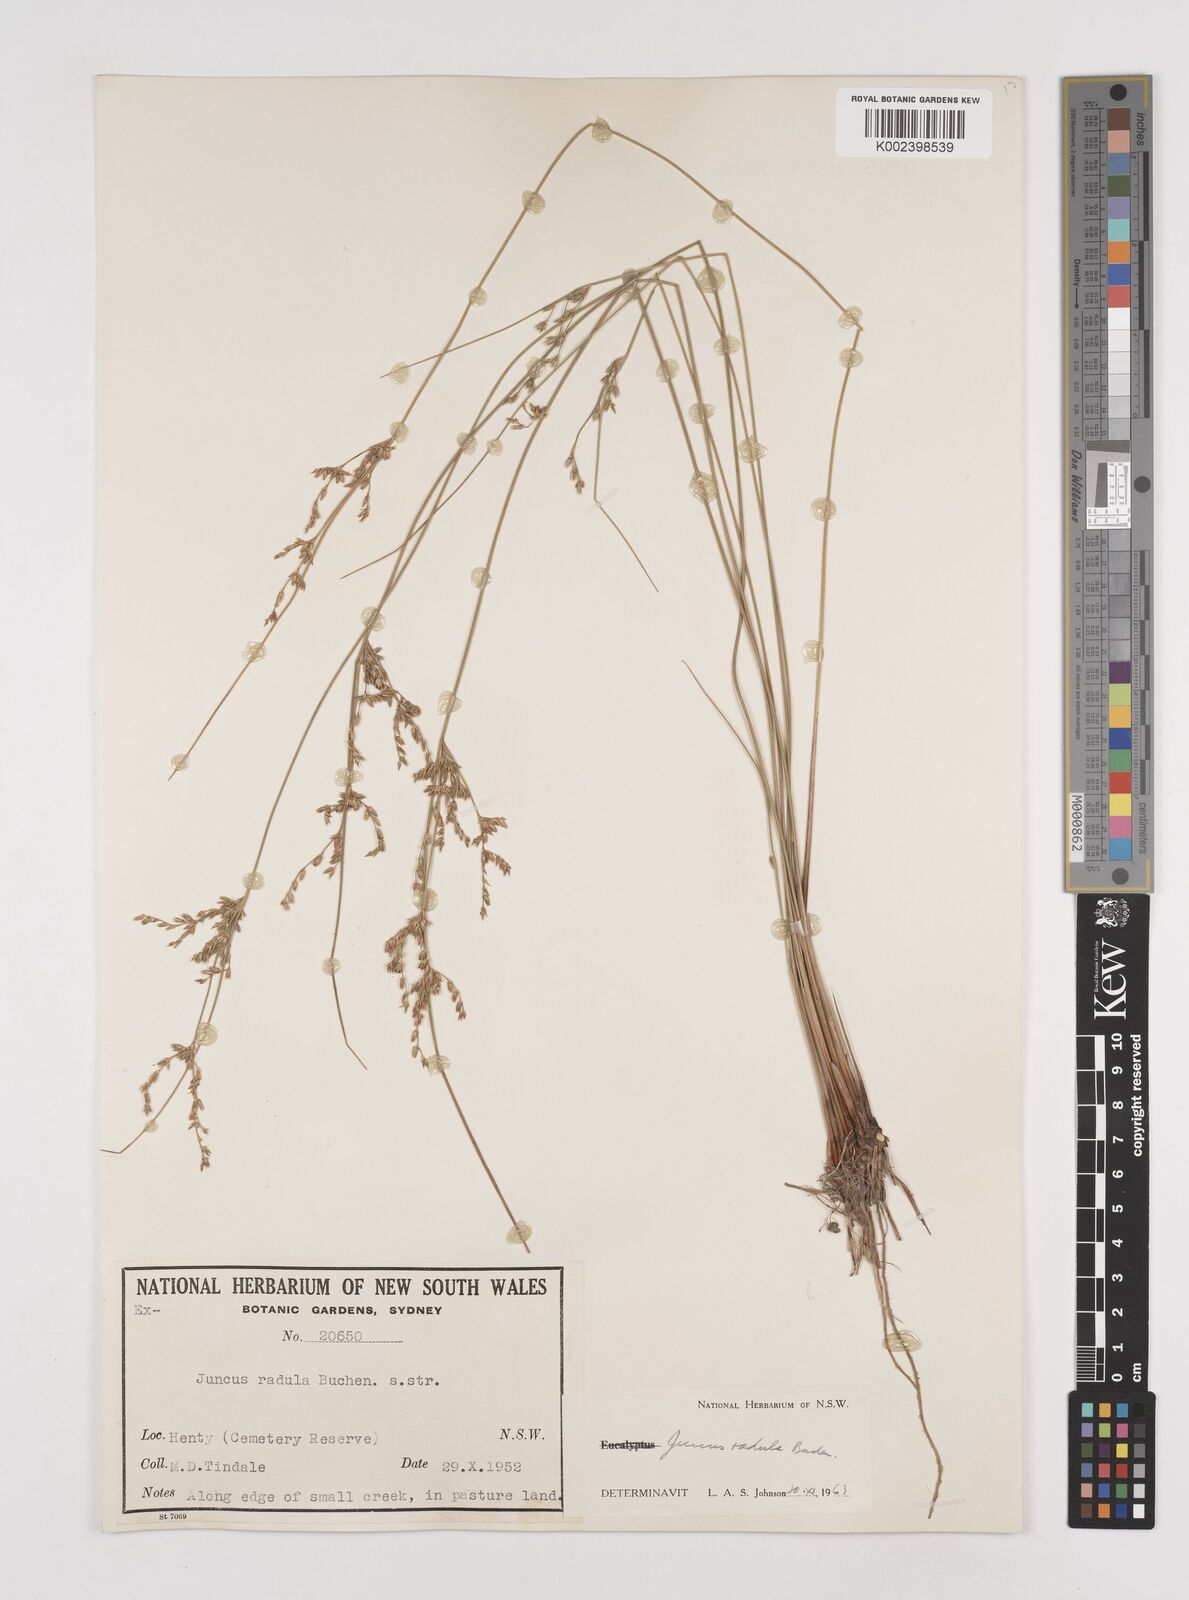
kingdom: Plantae
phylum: Tracheophyta
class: Liliopsida
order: Poales
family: Juncaceae
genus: Juncus
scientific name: Juncus radula
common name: Hoary rush
